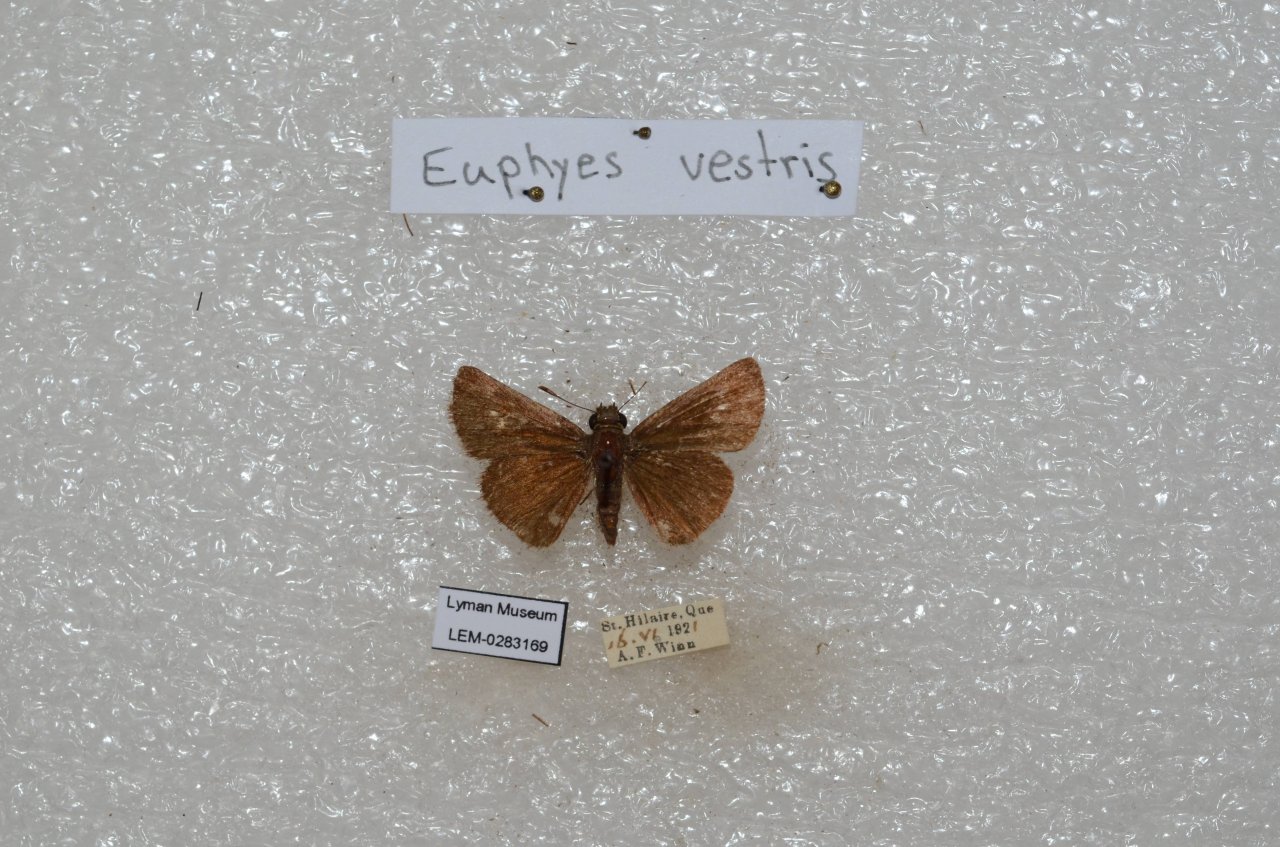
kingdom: Animalia
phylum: Arthropoda
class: Insecta
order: Lepidoptera
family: Hesperiidae
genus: Euphyes
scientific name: Euphyes vestris
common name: Dun Skipper
